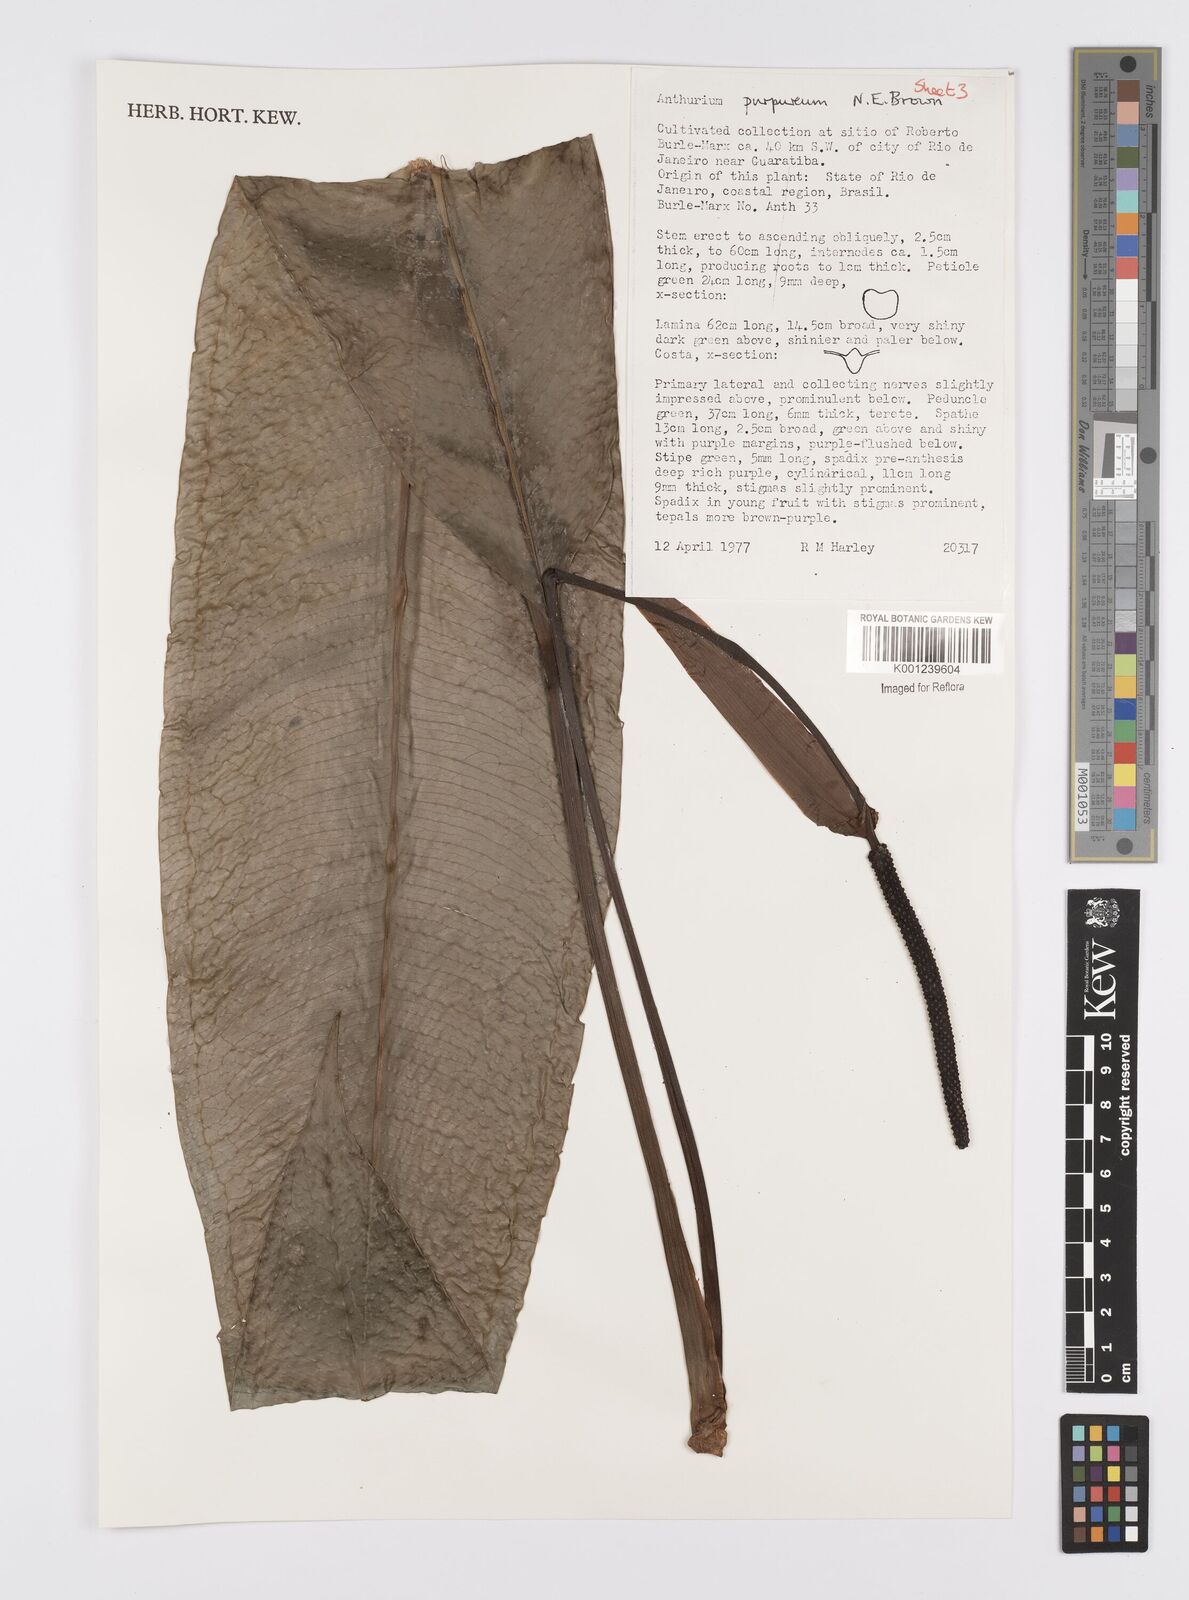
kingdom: Plantae
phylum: Tracheophyta
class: Liliopsida
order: Alismatales
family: Araceae
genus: Anthurium
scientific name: Anthurium purpureum
